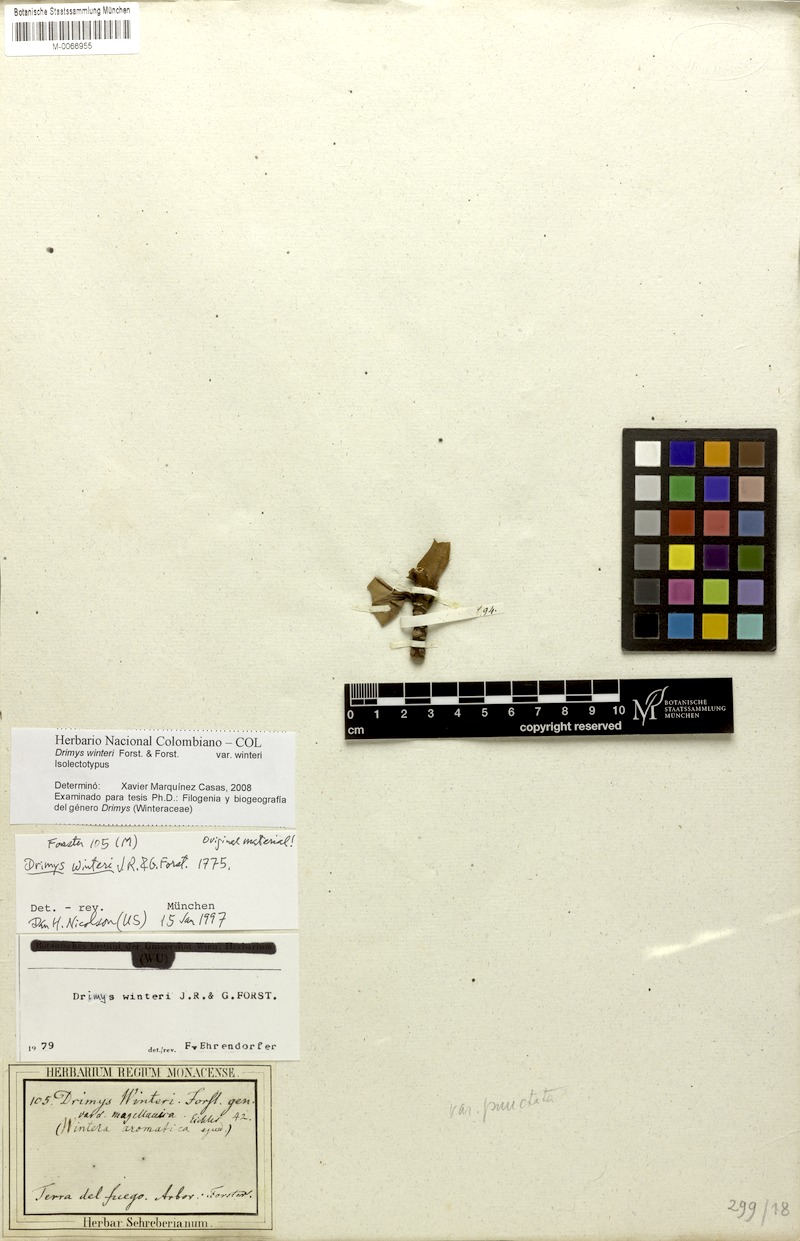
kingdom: Plantae
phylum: Tracheophyta
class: Magnoliopsida
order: Canellales
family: Winteraceae
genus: Drimys
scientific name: Drimys winteri
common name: Winter's-bark
